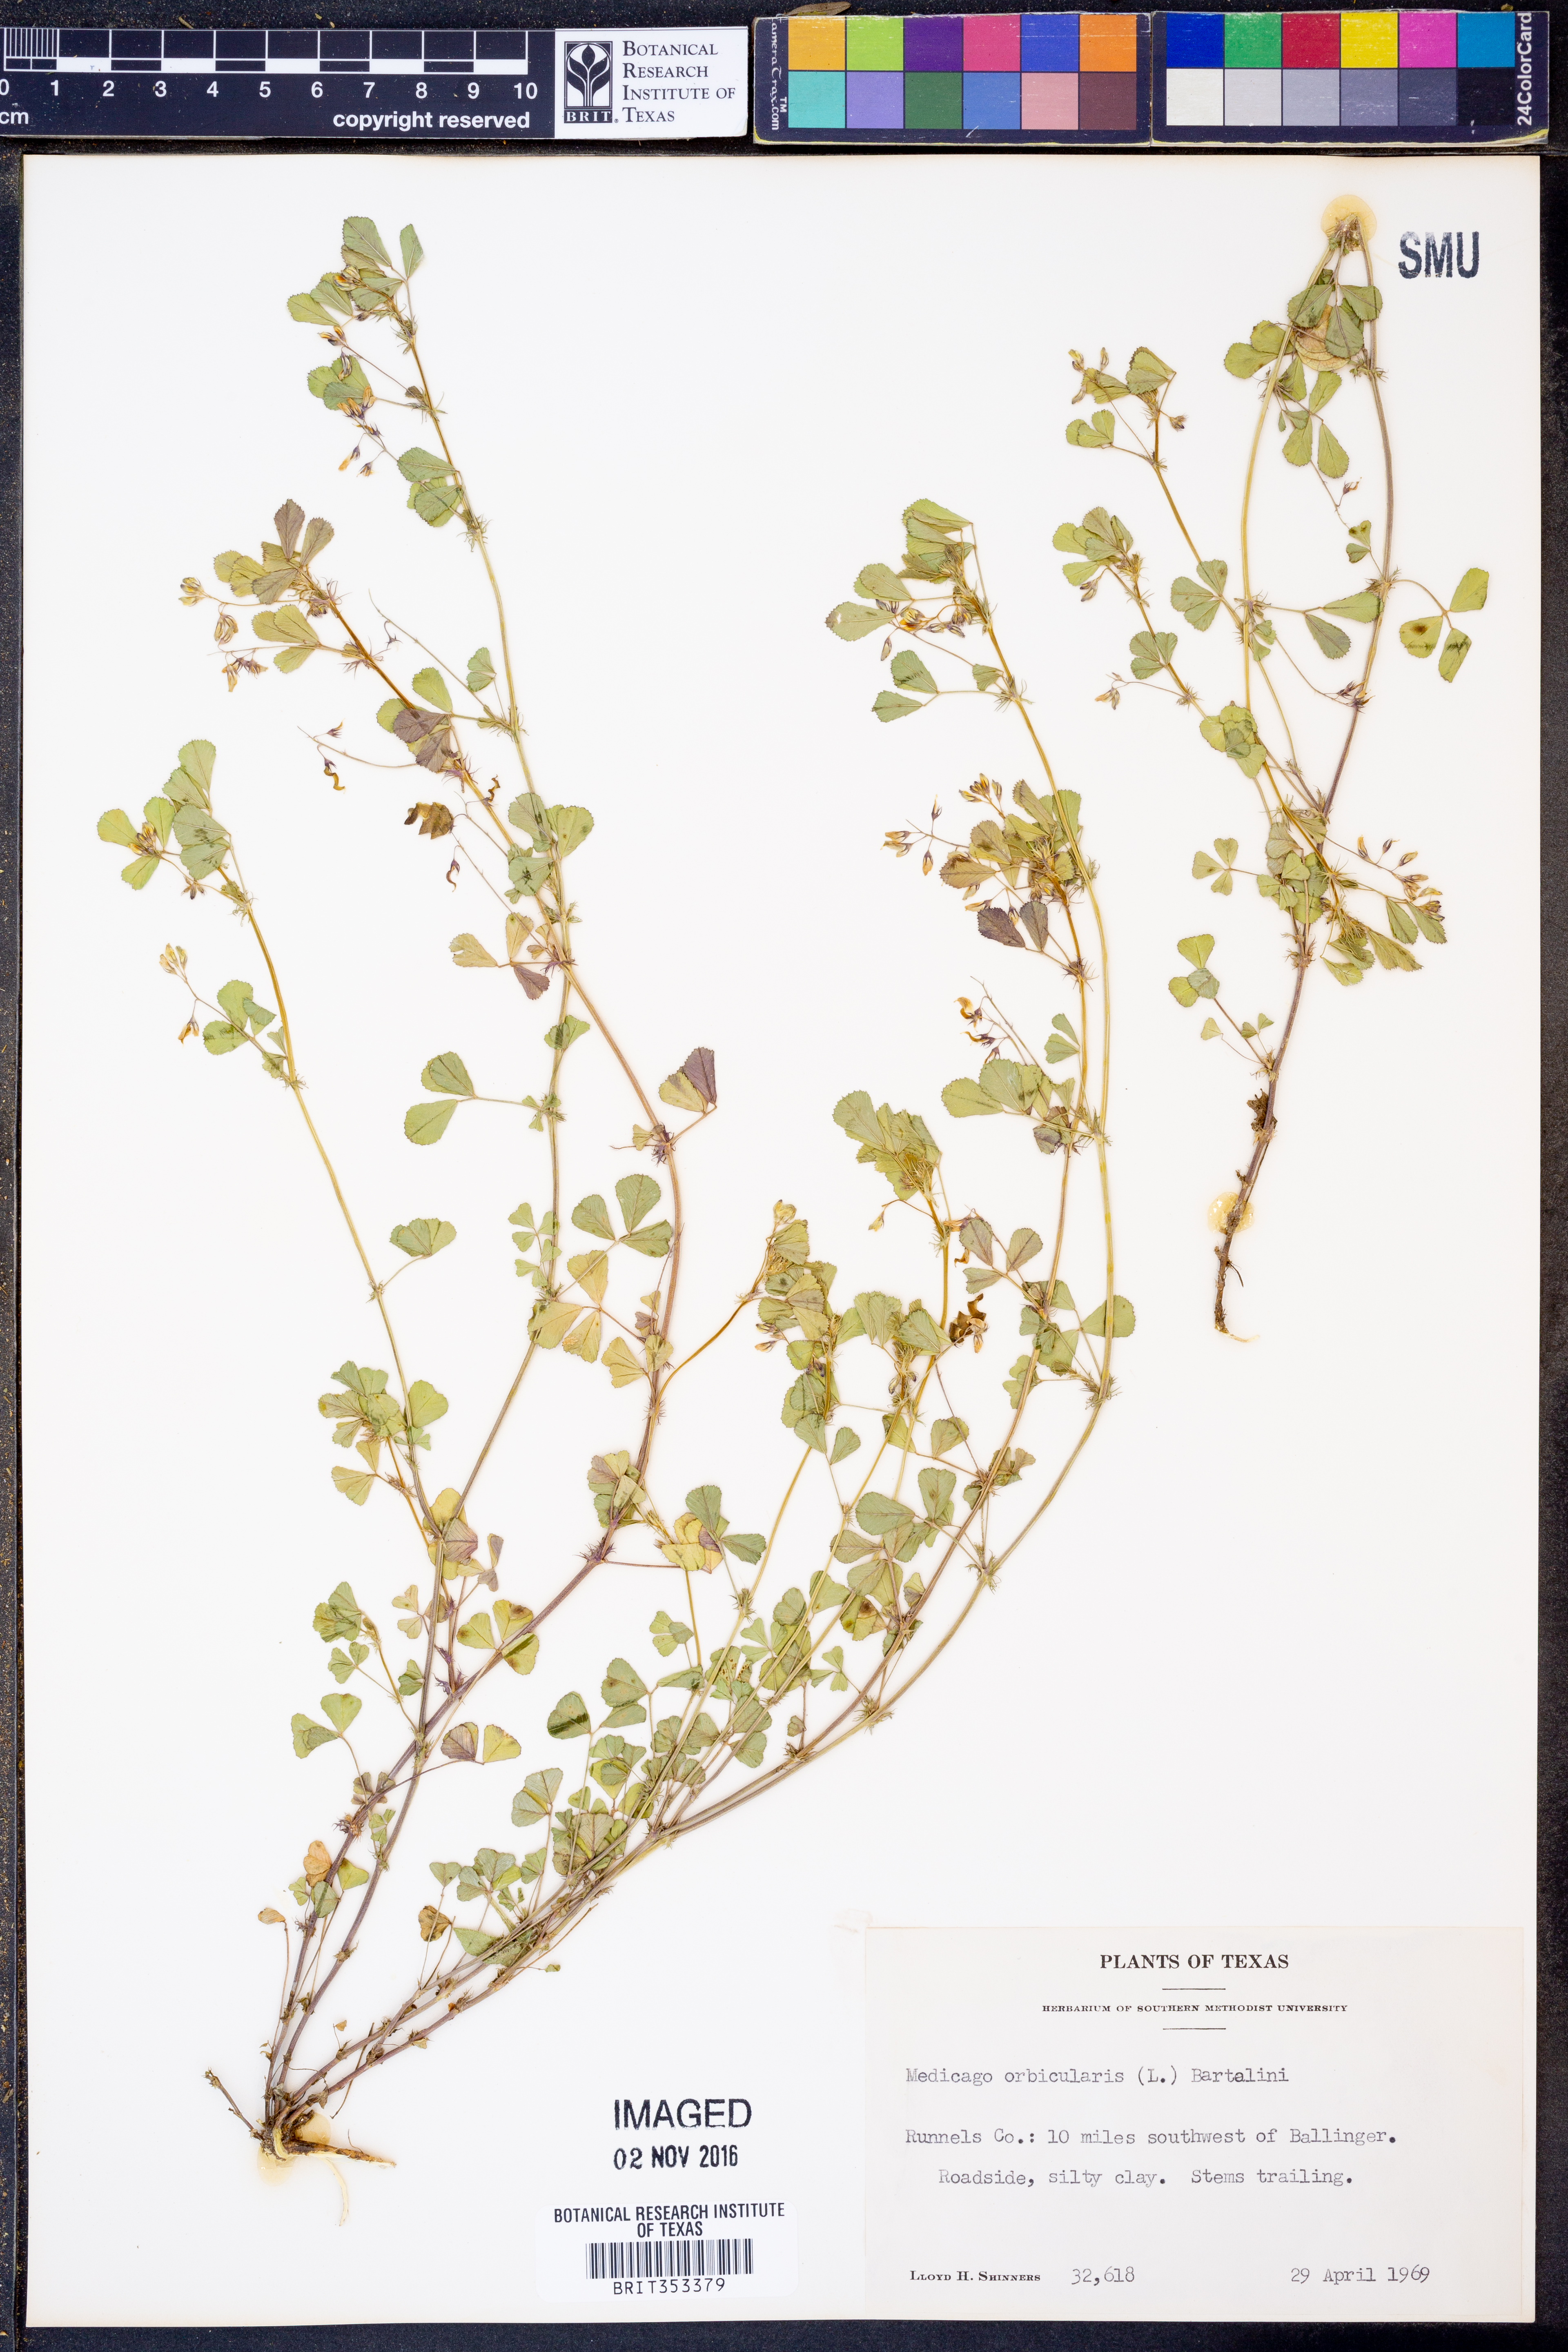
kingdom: Plantae
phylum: Tracheophyta
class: Magnoliopsida
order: Fabales
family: Fabaceae
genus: Medicago
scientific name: Medicago orbicularis
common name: Button medick
